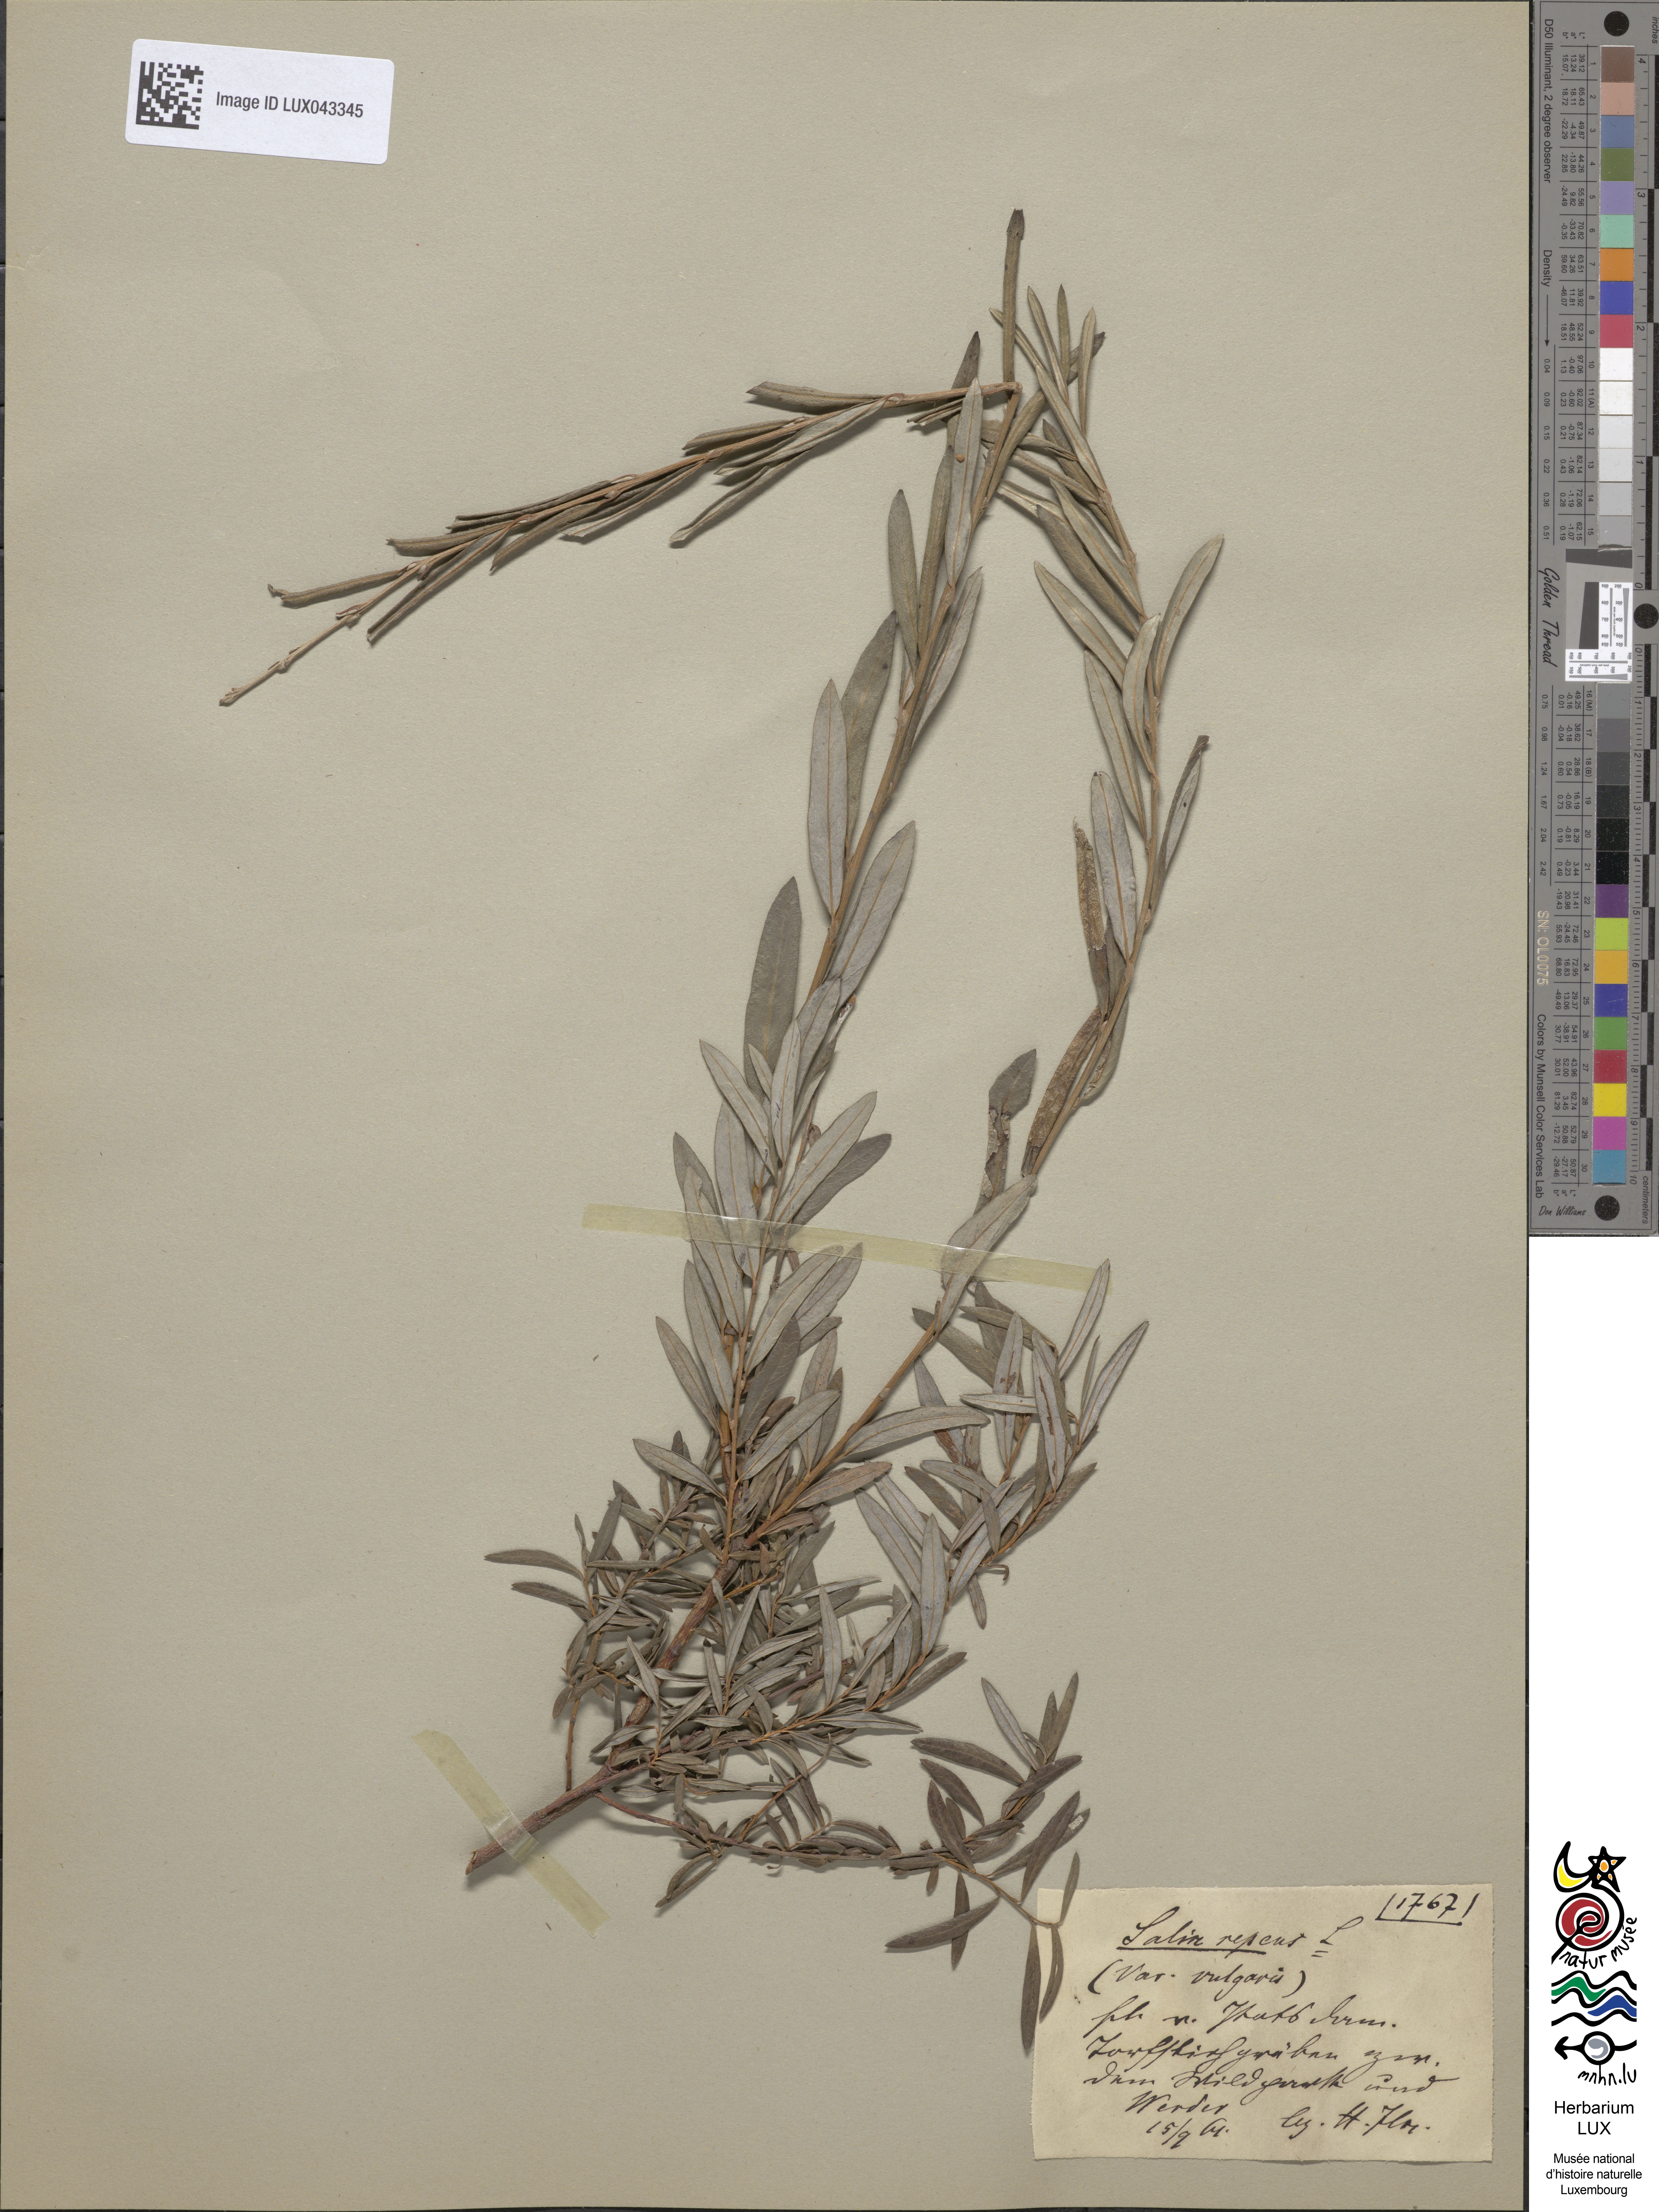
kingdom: Plantae
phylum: Tracheophyta
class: Magnoliopsida
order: Malpighiales
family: Salicaceae
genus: Salix
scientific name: Salix repens
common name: Creeping willow
